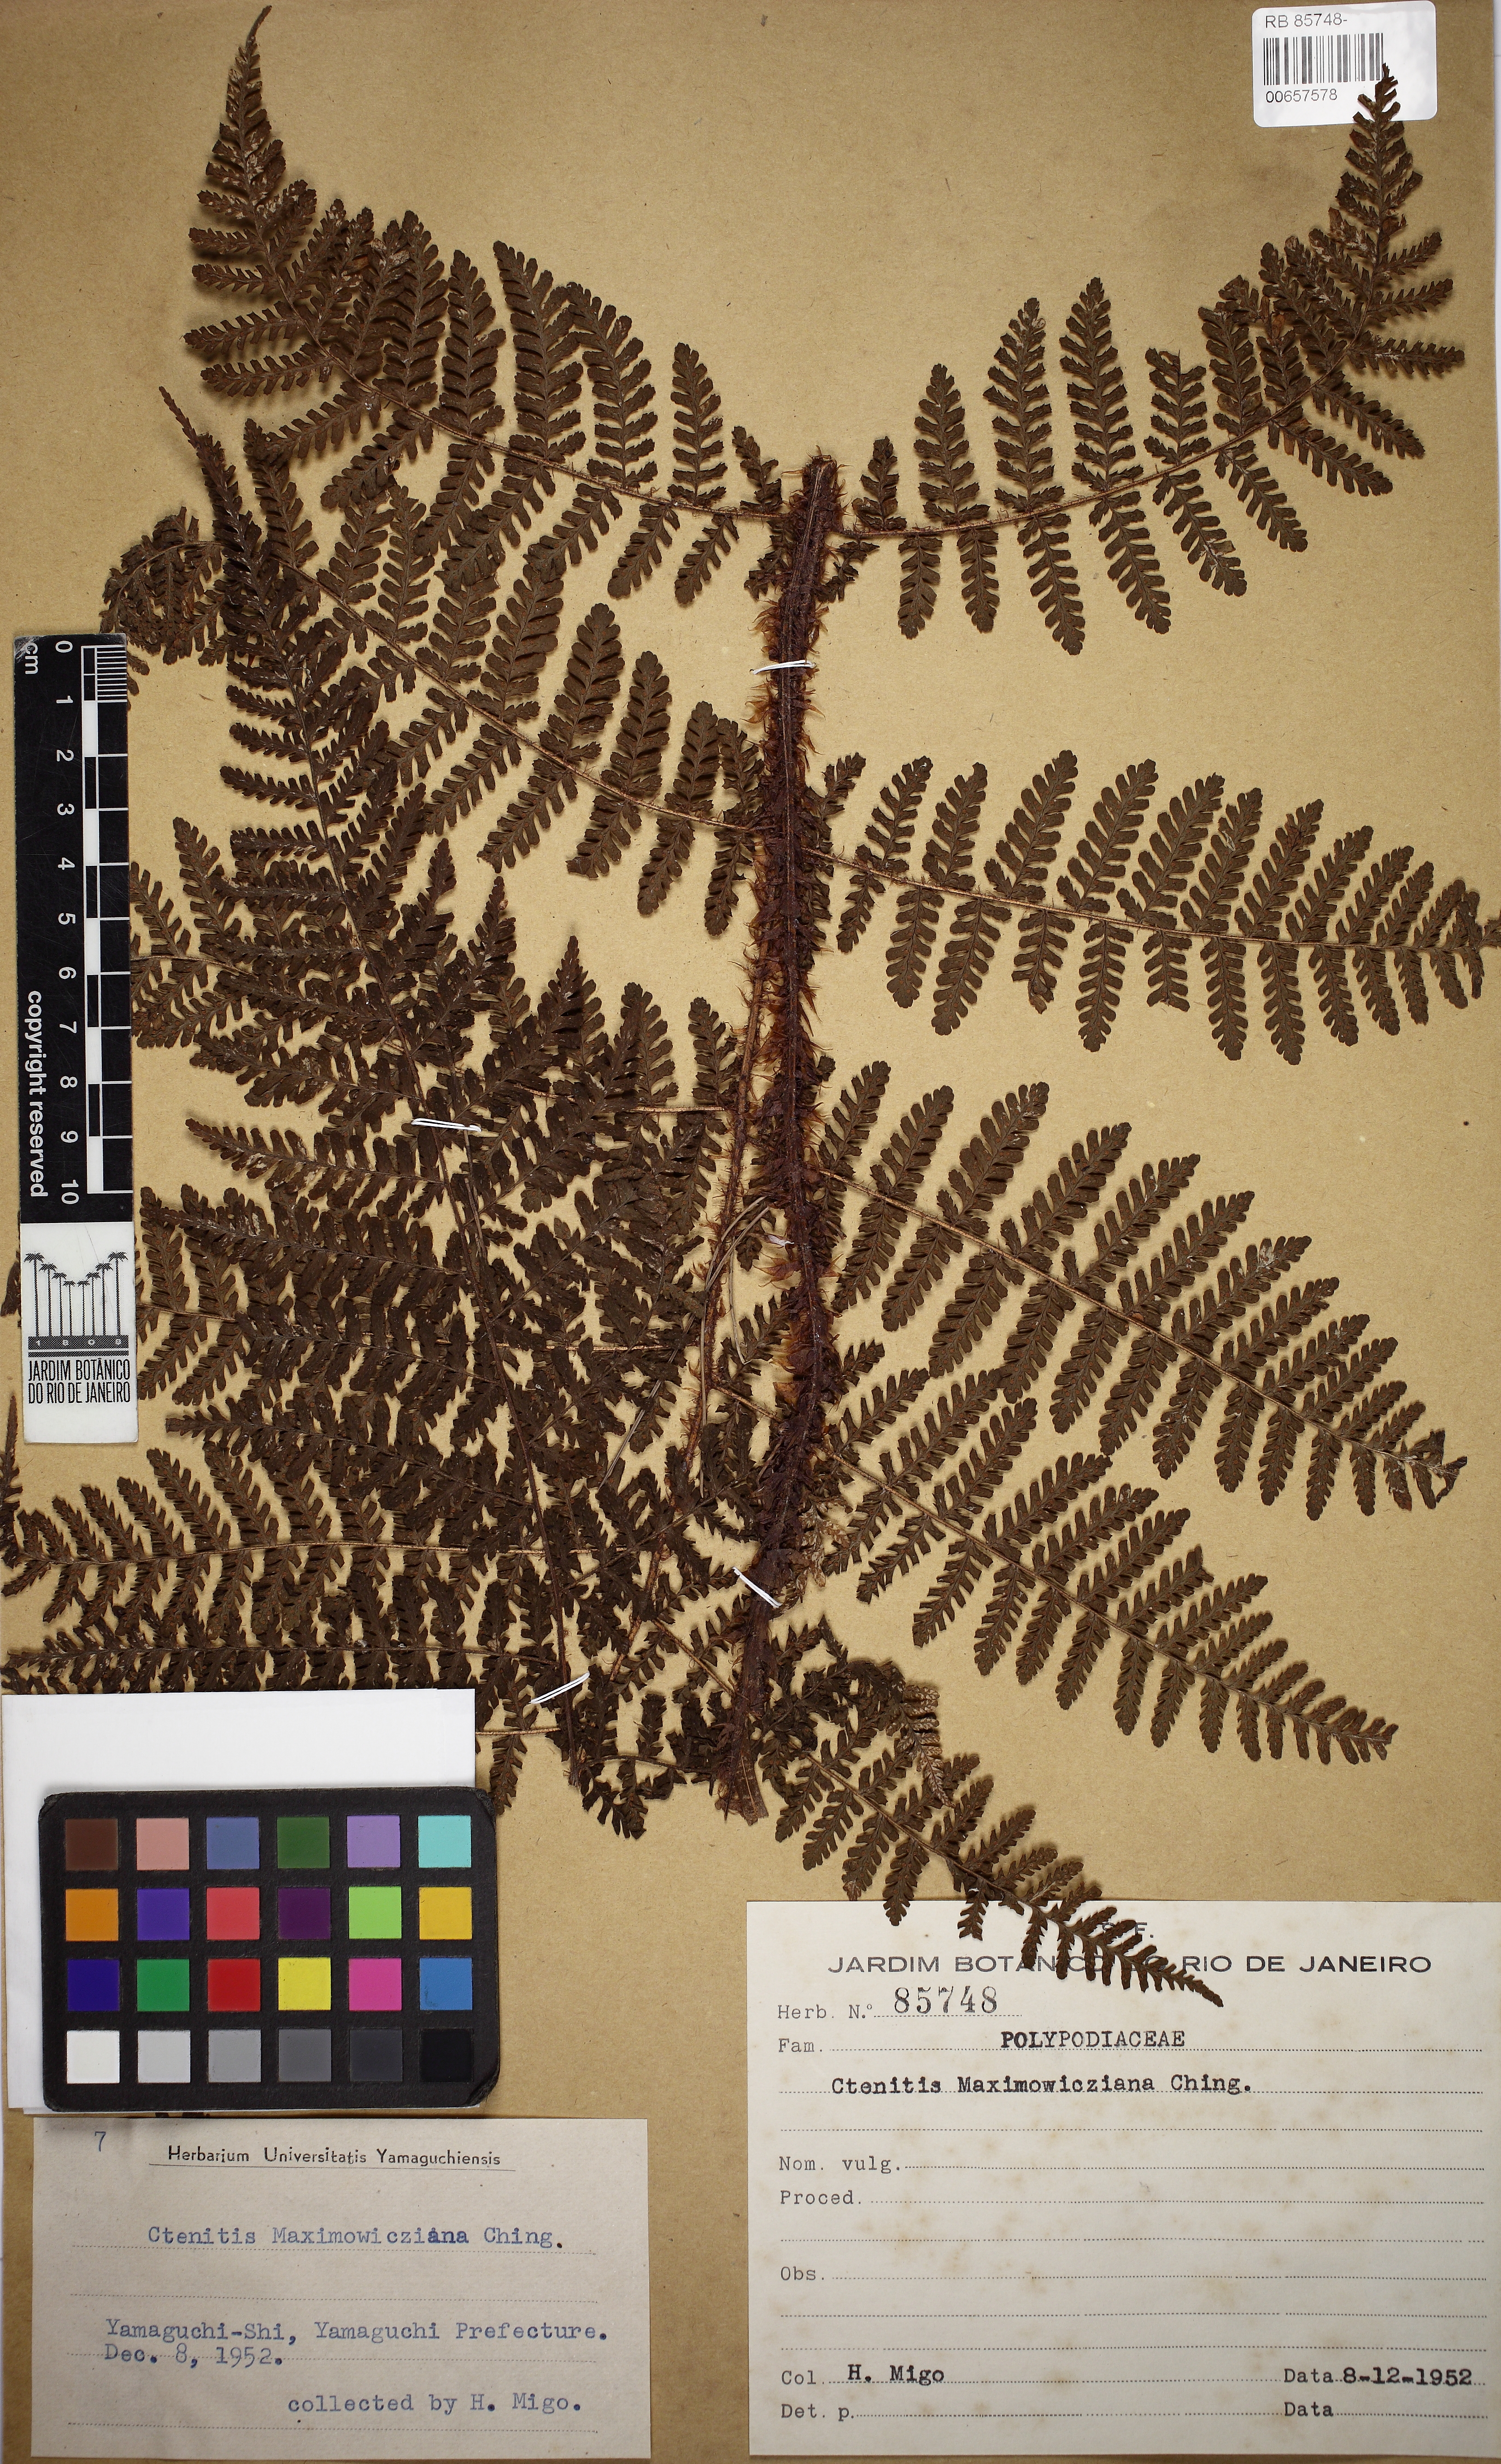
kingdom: Plantae
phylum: Tracheophyta
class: Polypodiopsida
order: Polypodiales
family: Dryopteridaceae
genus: Megalastrum
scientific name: Megalastrum
